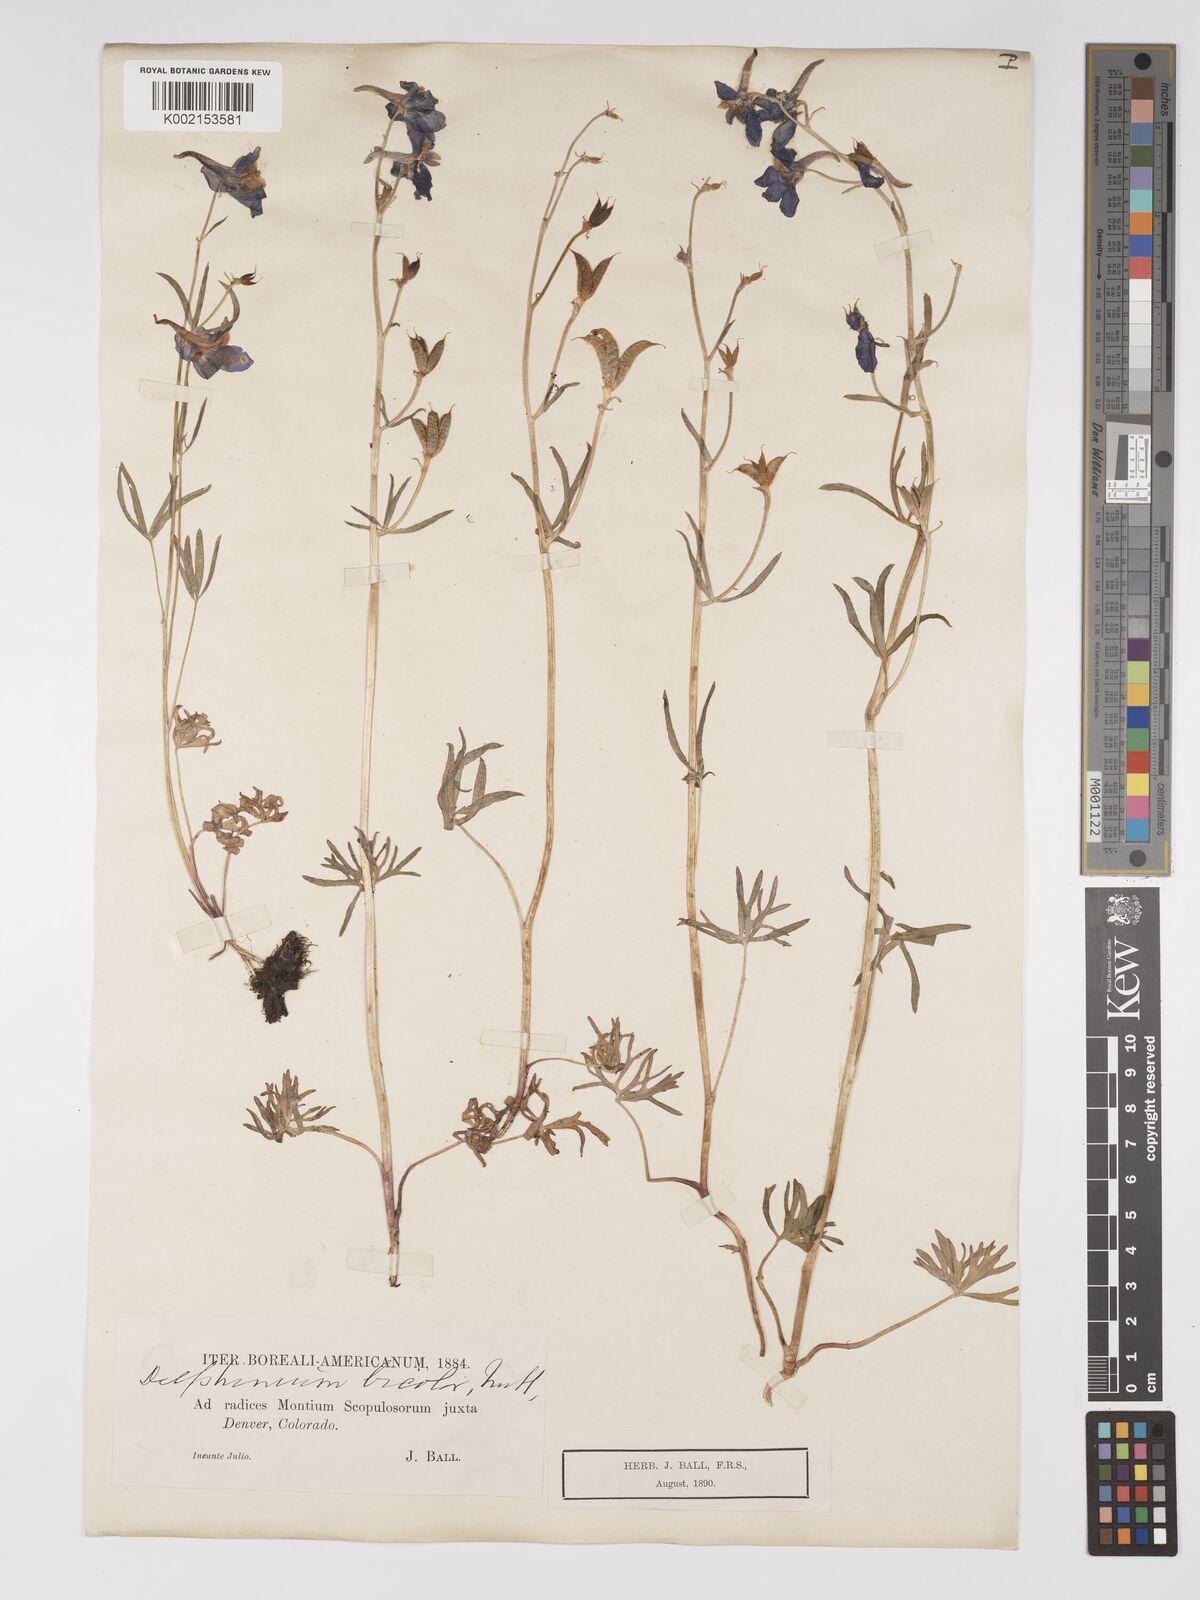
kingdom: Plantae
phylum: Tracheophyta
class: Magnoliopsida
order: Ranunculales
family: Ranunculaceae
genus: Delphinium
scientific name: Delphinium bicolor
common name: Low larkspur
